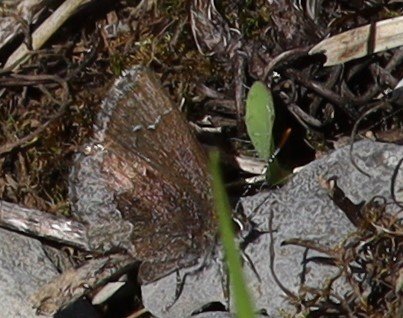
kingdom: Animalia
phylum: Arthropoda
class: Insecta
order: Lepidoptera
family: Lycaenidae
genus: Callophrys
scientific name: Callophrys polios
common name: Hoary Elfin
